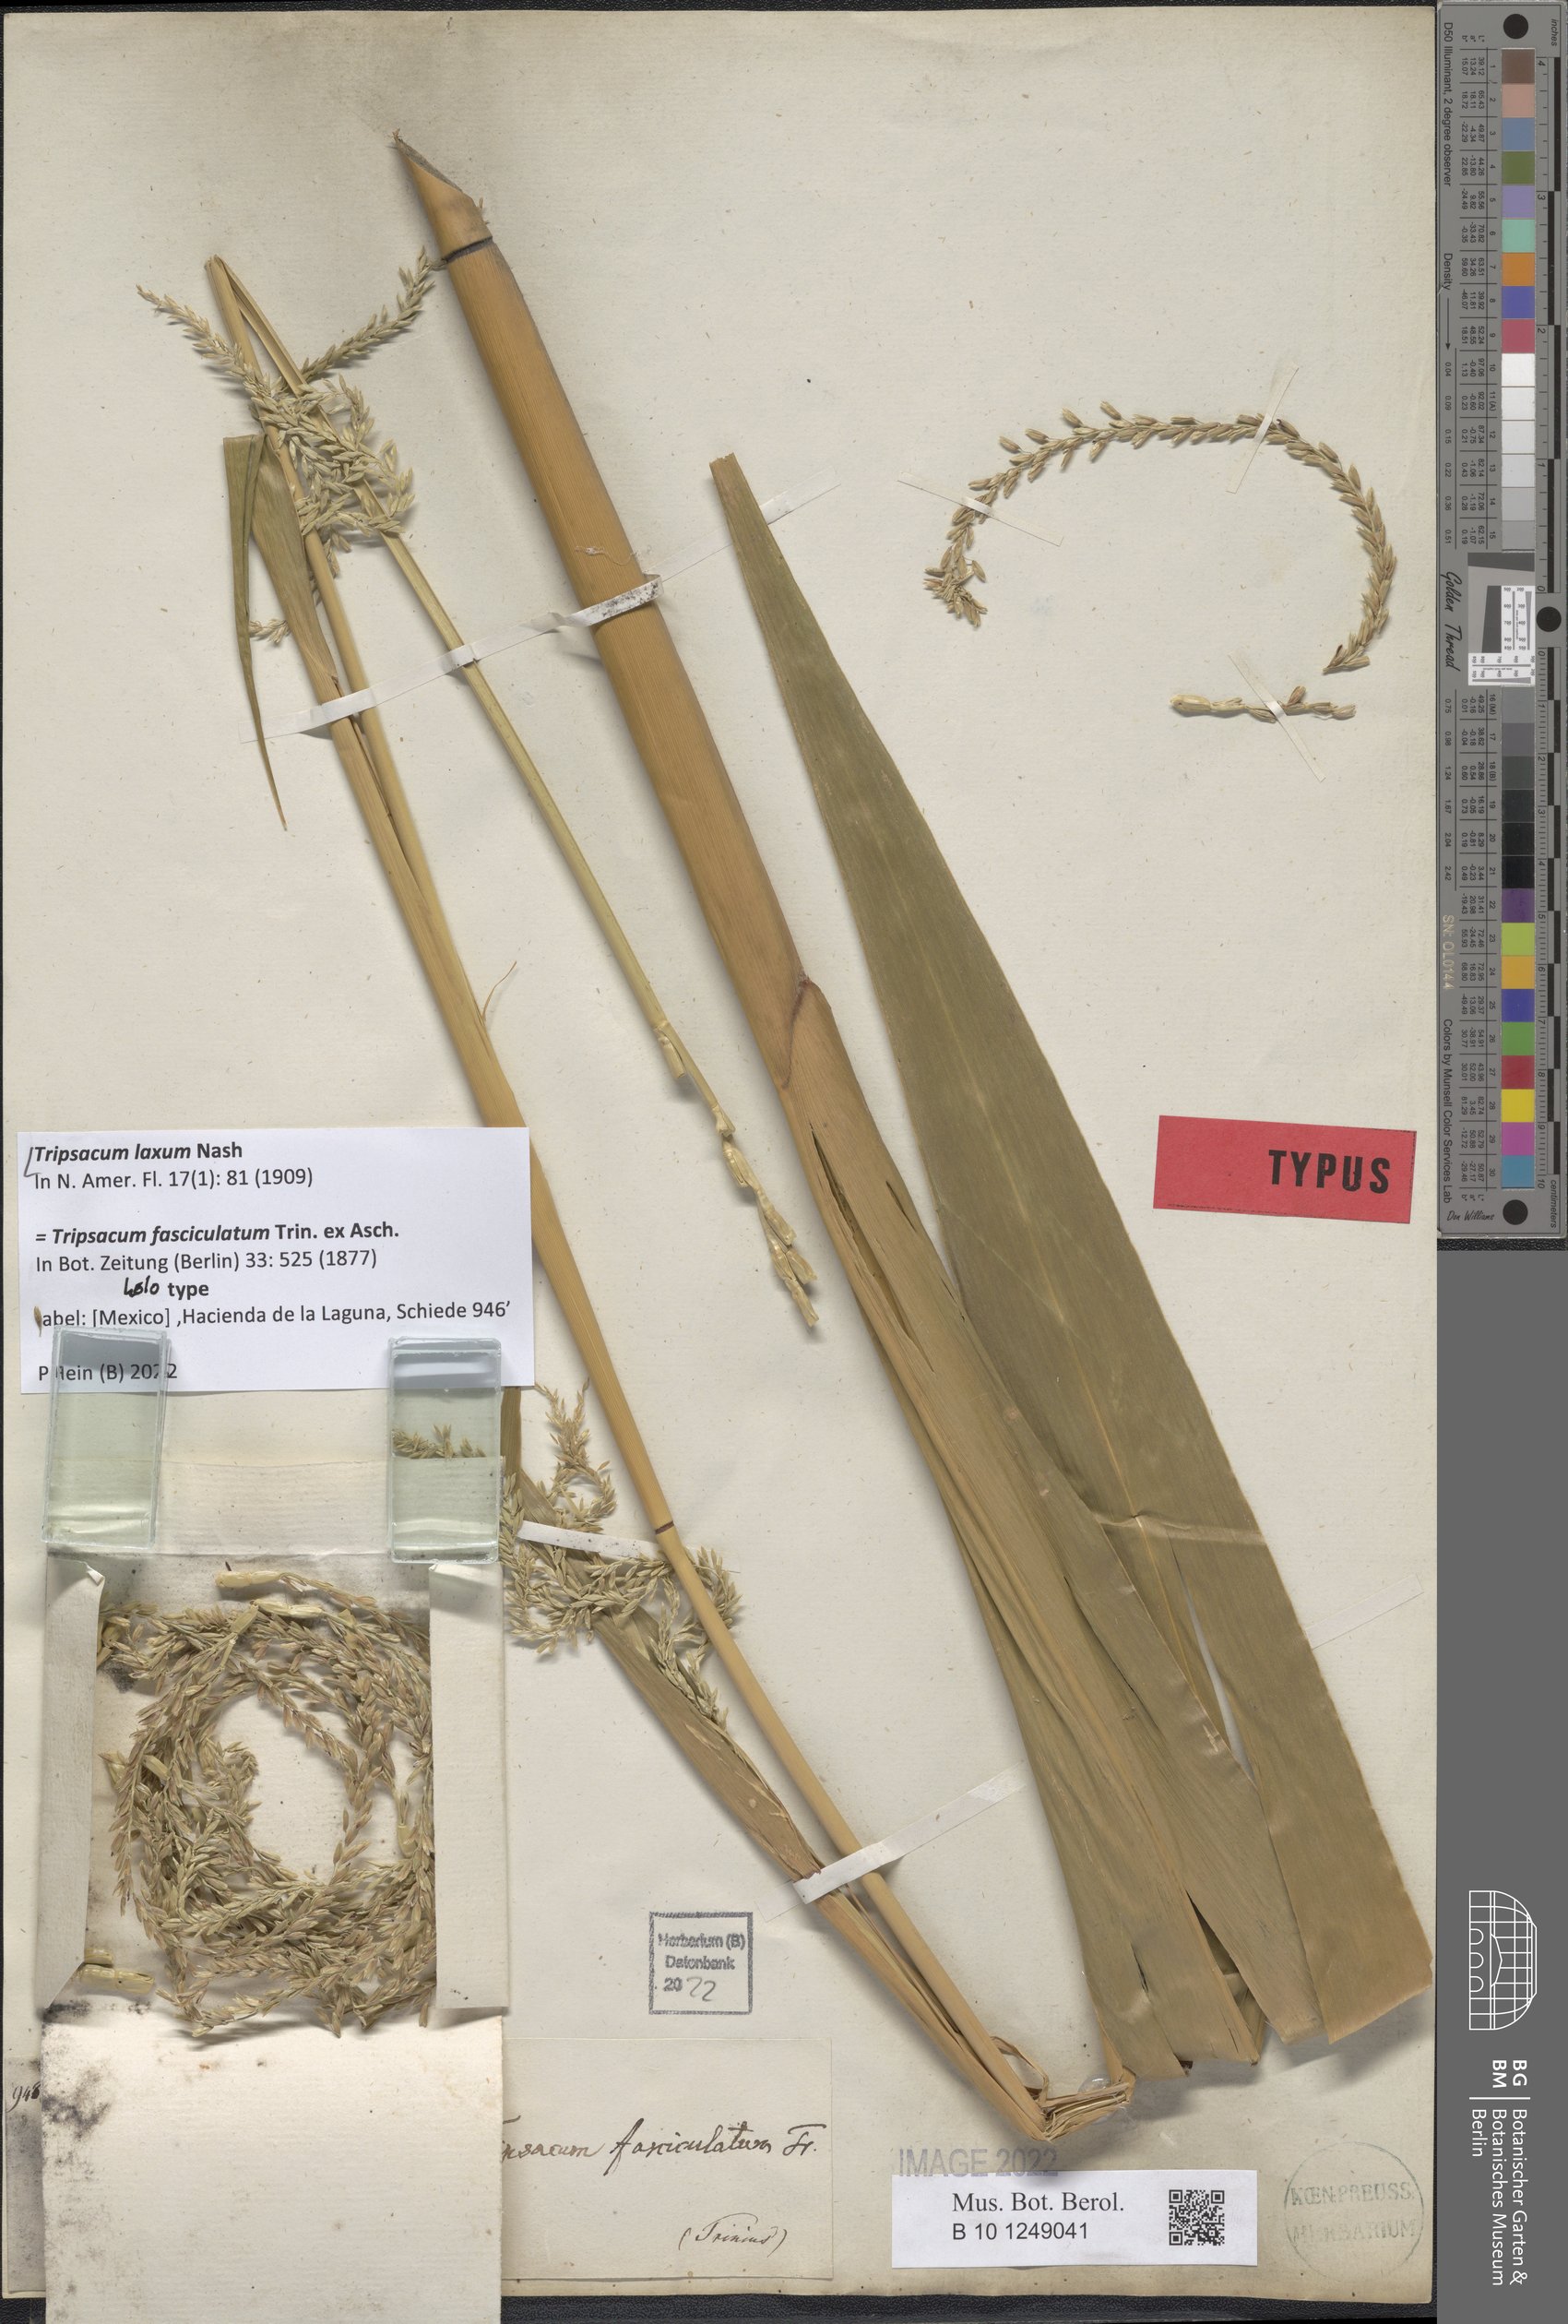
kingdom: Plantae
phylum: Tracheophyta
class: Liliopsida
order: Poales
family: Poaceae
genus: Tripsacum
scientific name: Tripsacum laxum
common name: Grama-guatemala
